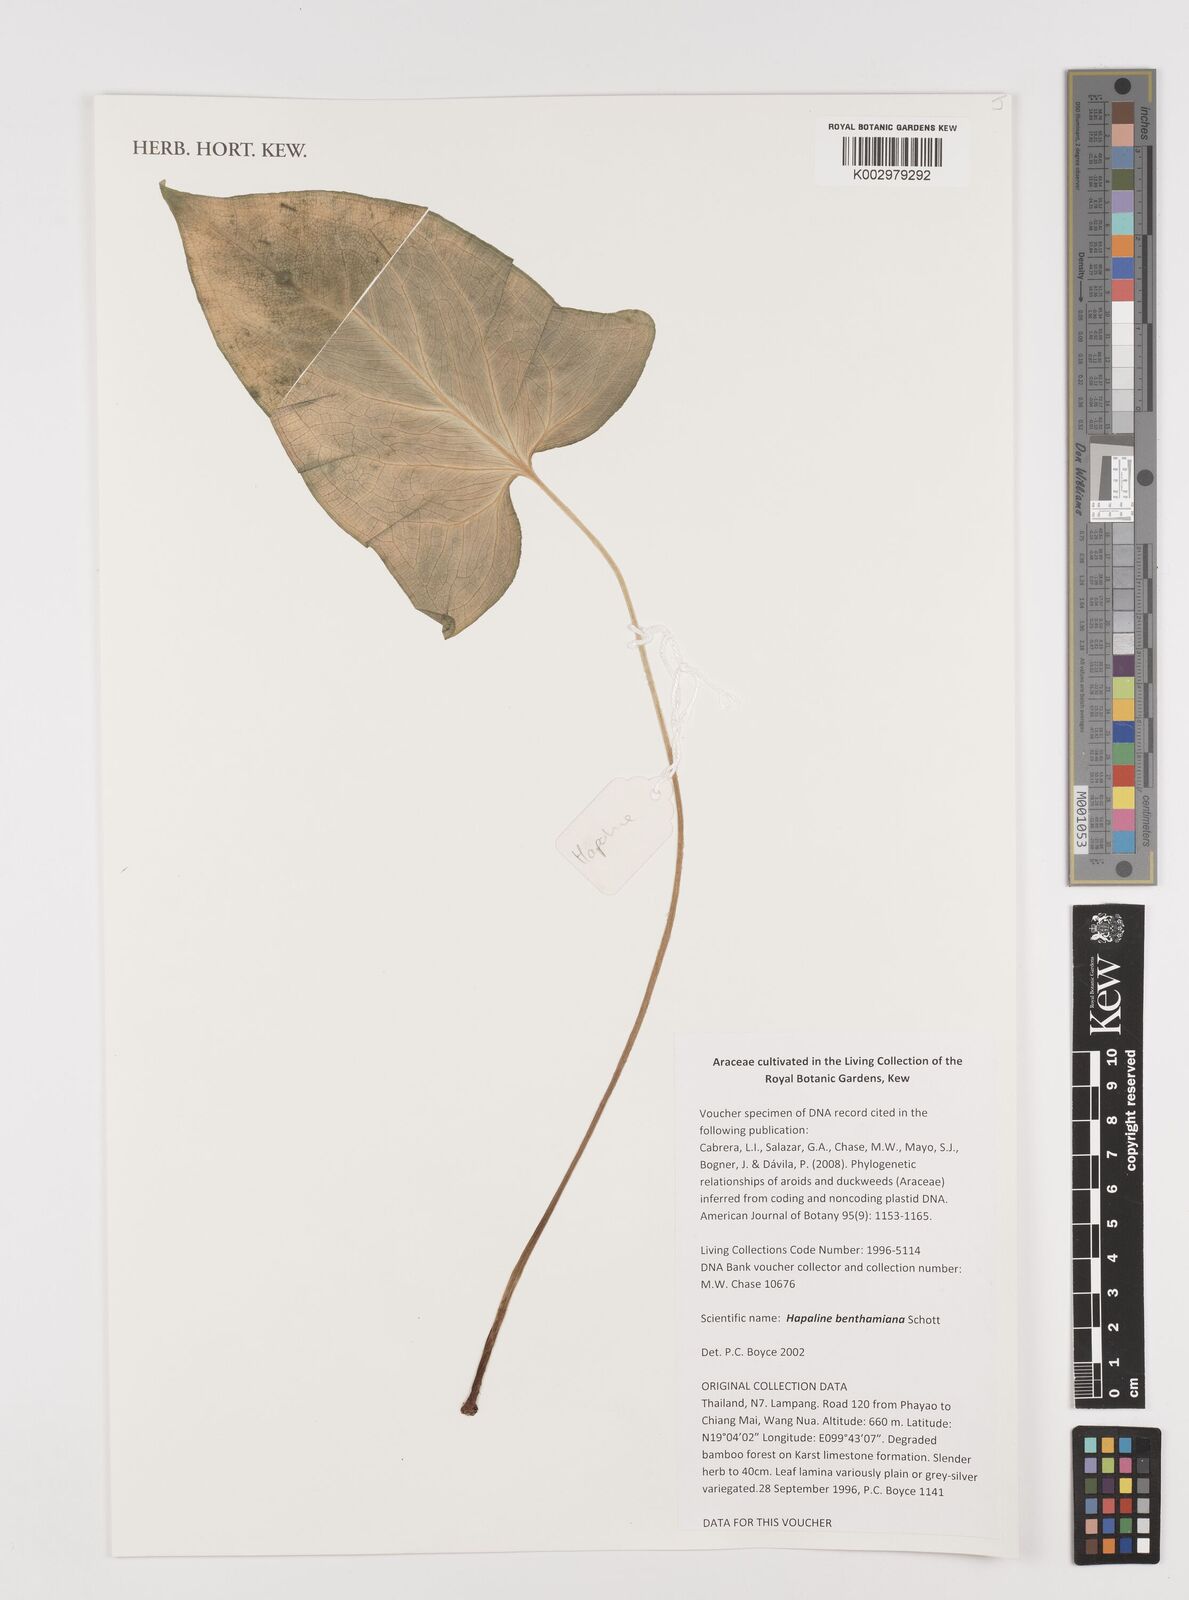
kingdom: Plantae
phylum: Tracheophyta
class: Liliopsida
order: Alismatales
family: Araceae
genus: Hapaline
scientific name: Hapaline benthamiana
